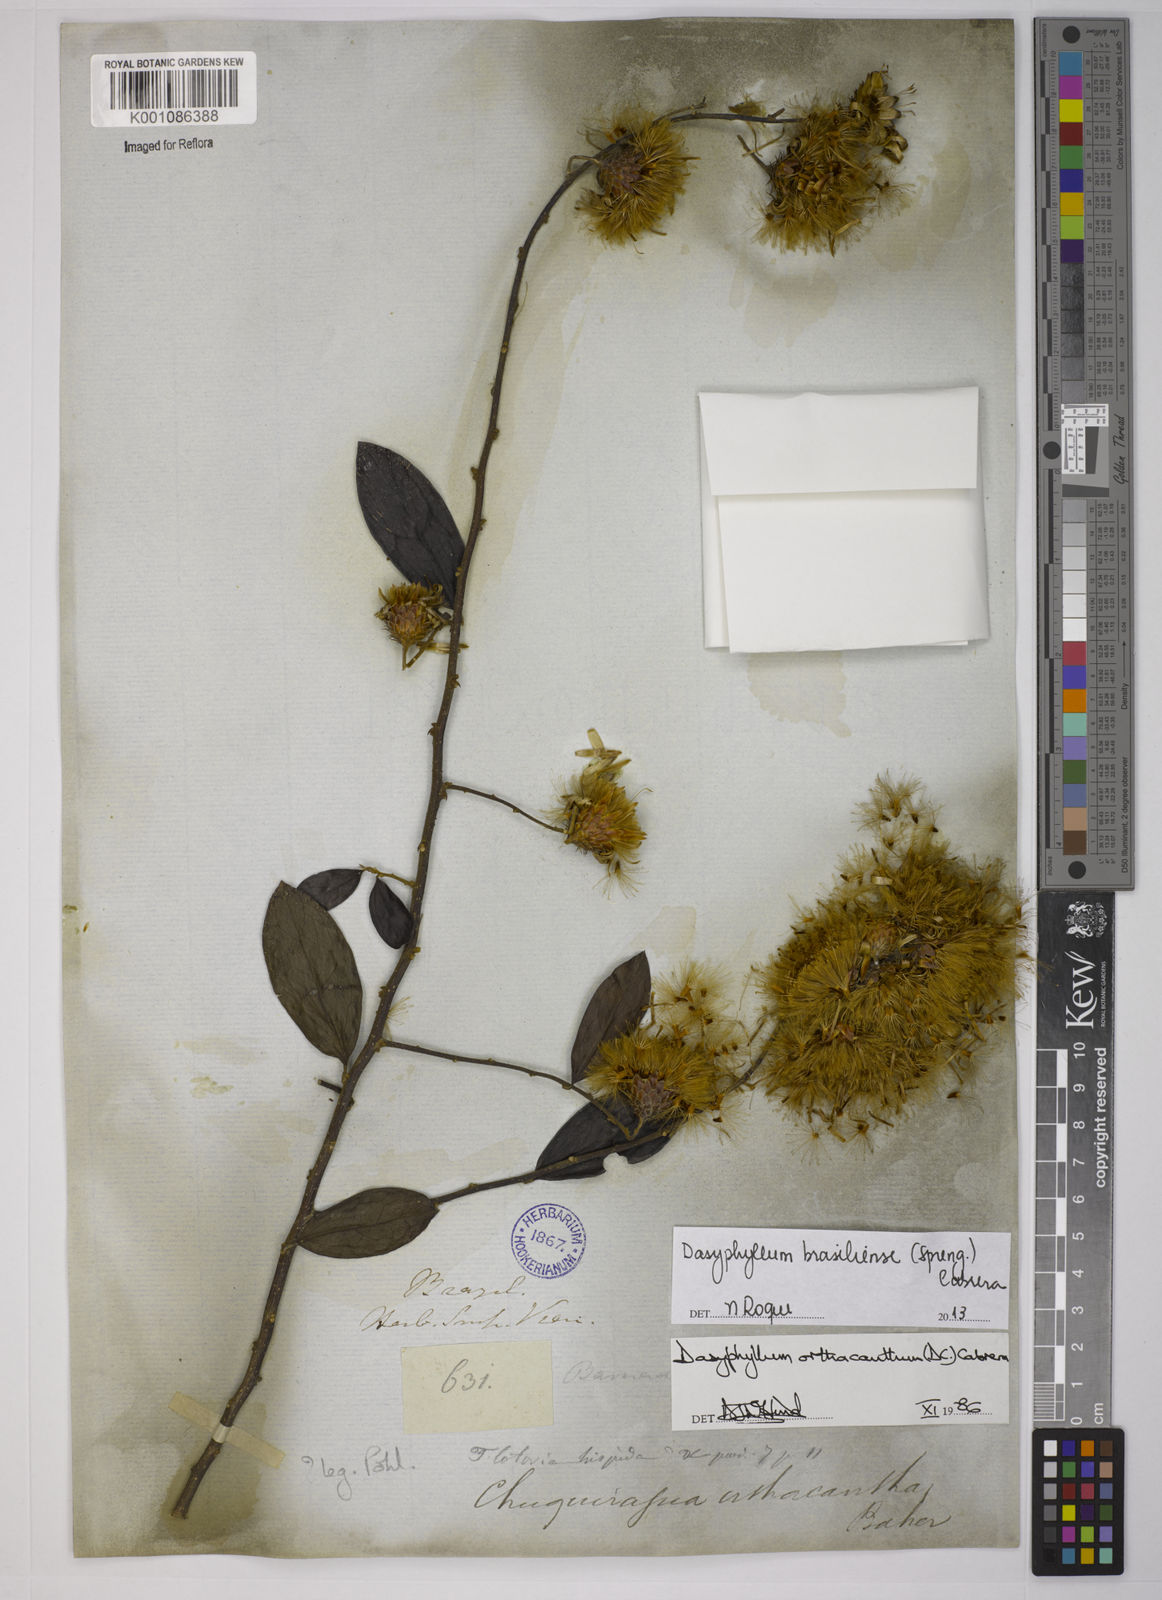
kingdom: Plantae
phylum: Tracheophyta
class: Magnoliopsida
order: Asterales
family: Asteraceae
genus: Dasyphyllum
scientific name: Dasyphyllum brasiliense
